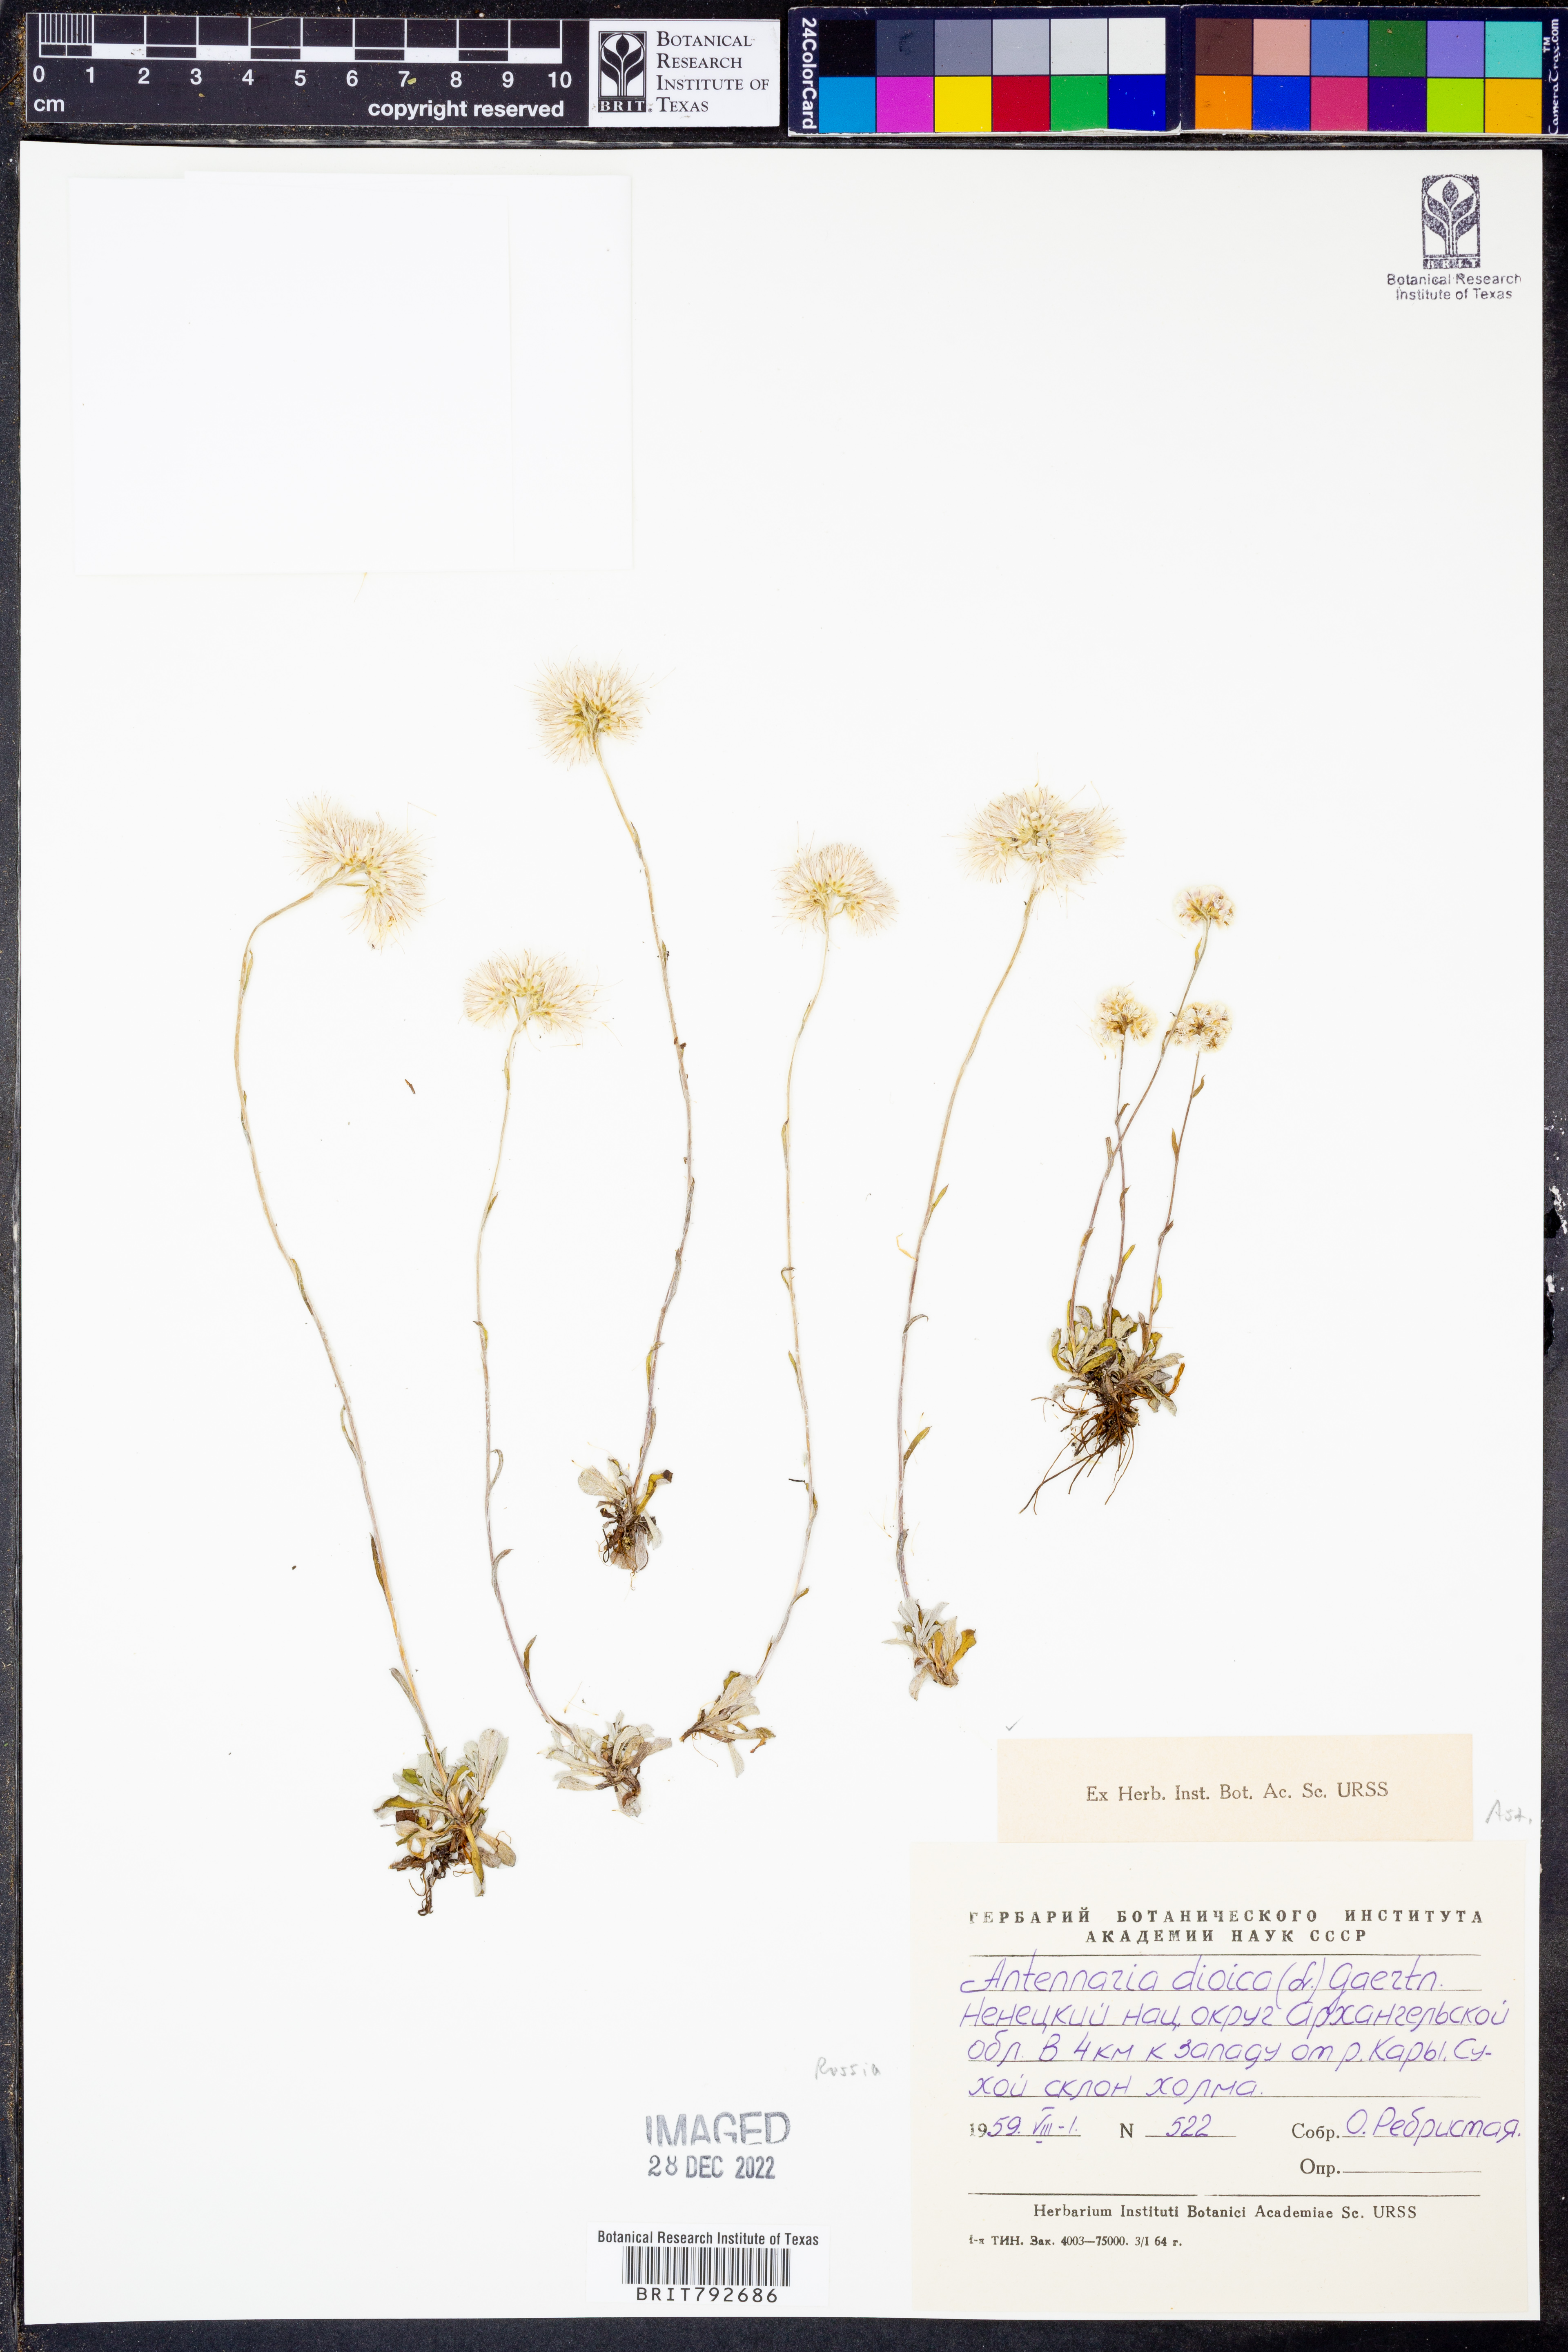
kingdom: Plantae
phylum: Tracheophyta
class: Magnoliopsida
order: Asterales
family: Asteraceae
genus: Antennaria
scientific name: Antennaria dioica
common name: Mountain everlasting
